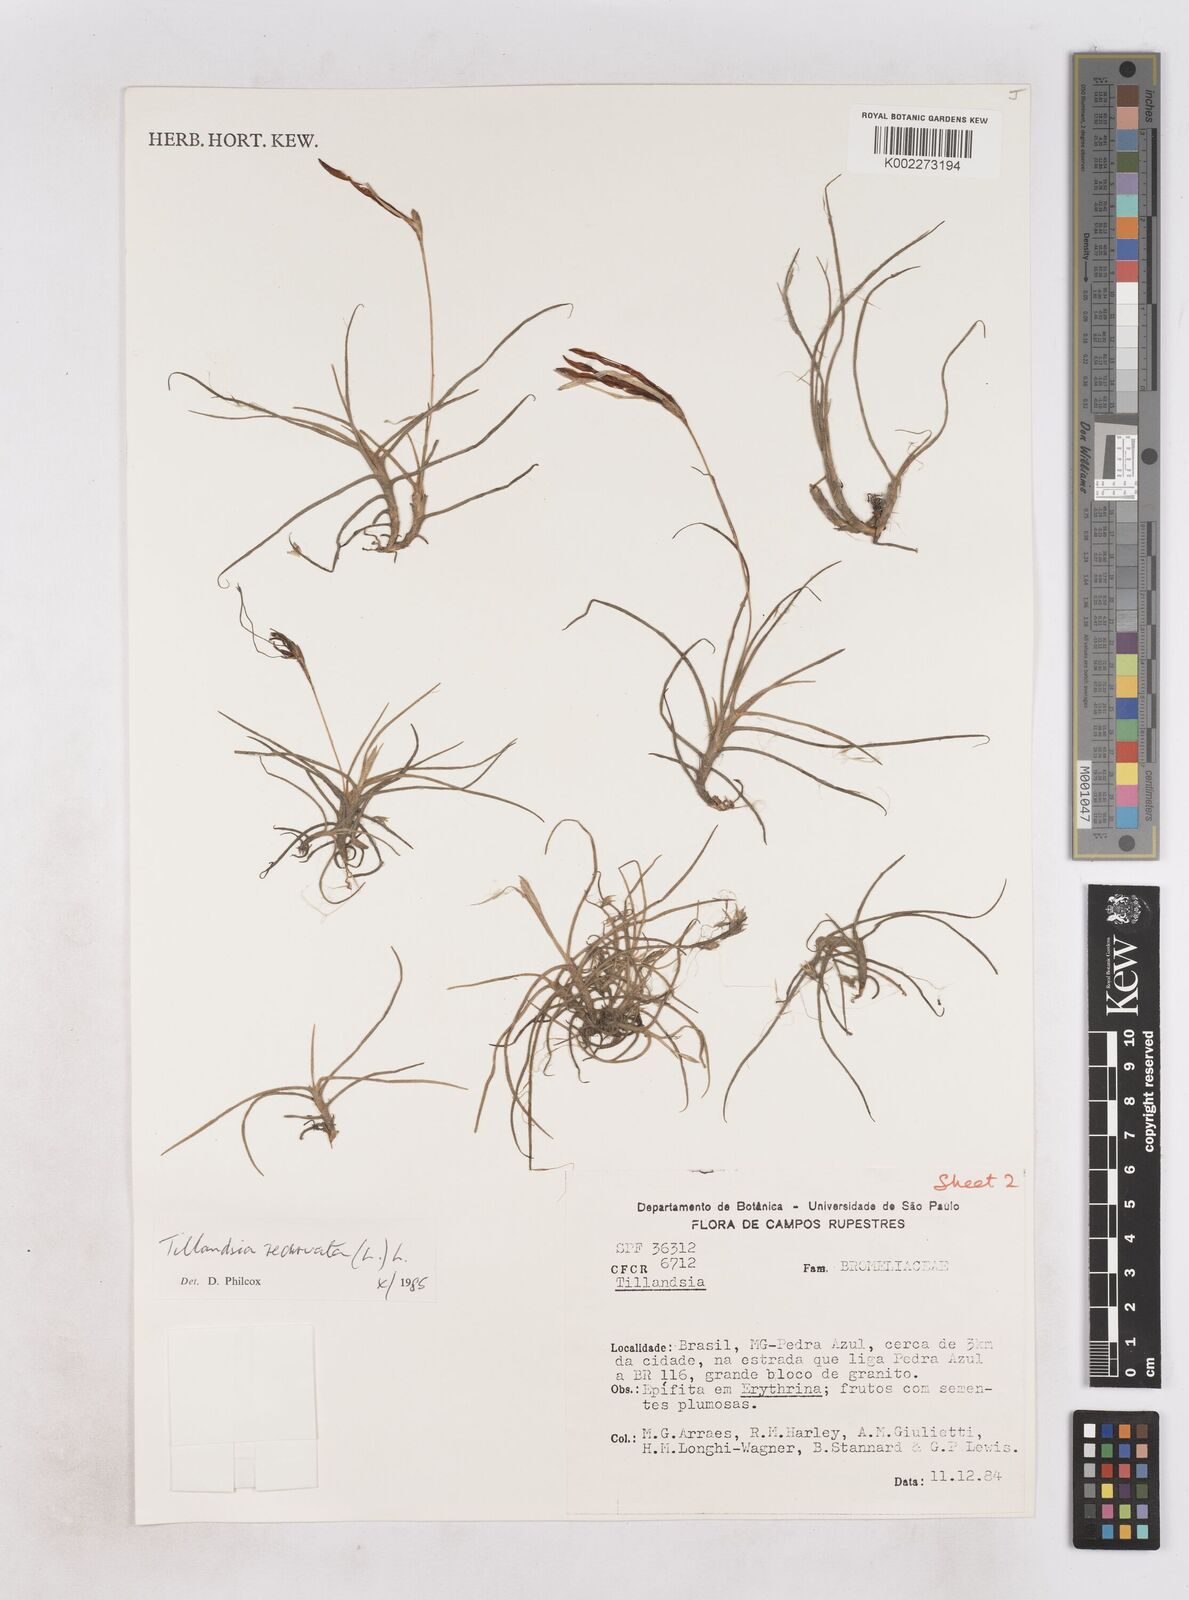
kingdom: Plantae
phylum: Tracheophyta
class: Liliopsida
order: Poales
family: Bromeliaceae
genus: Tillandsia
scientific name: Tillandsia recurvata
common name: Small ballmoss
